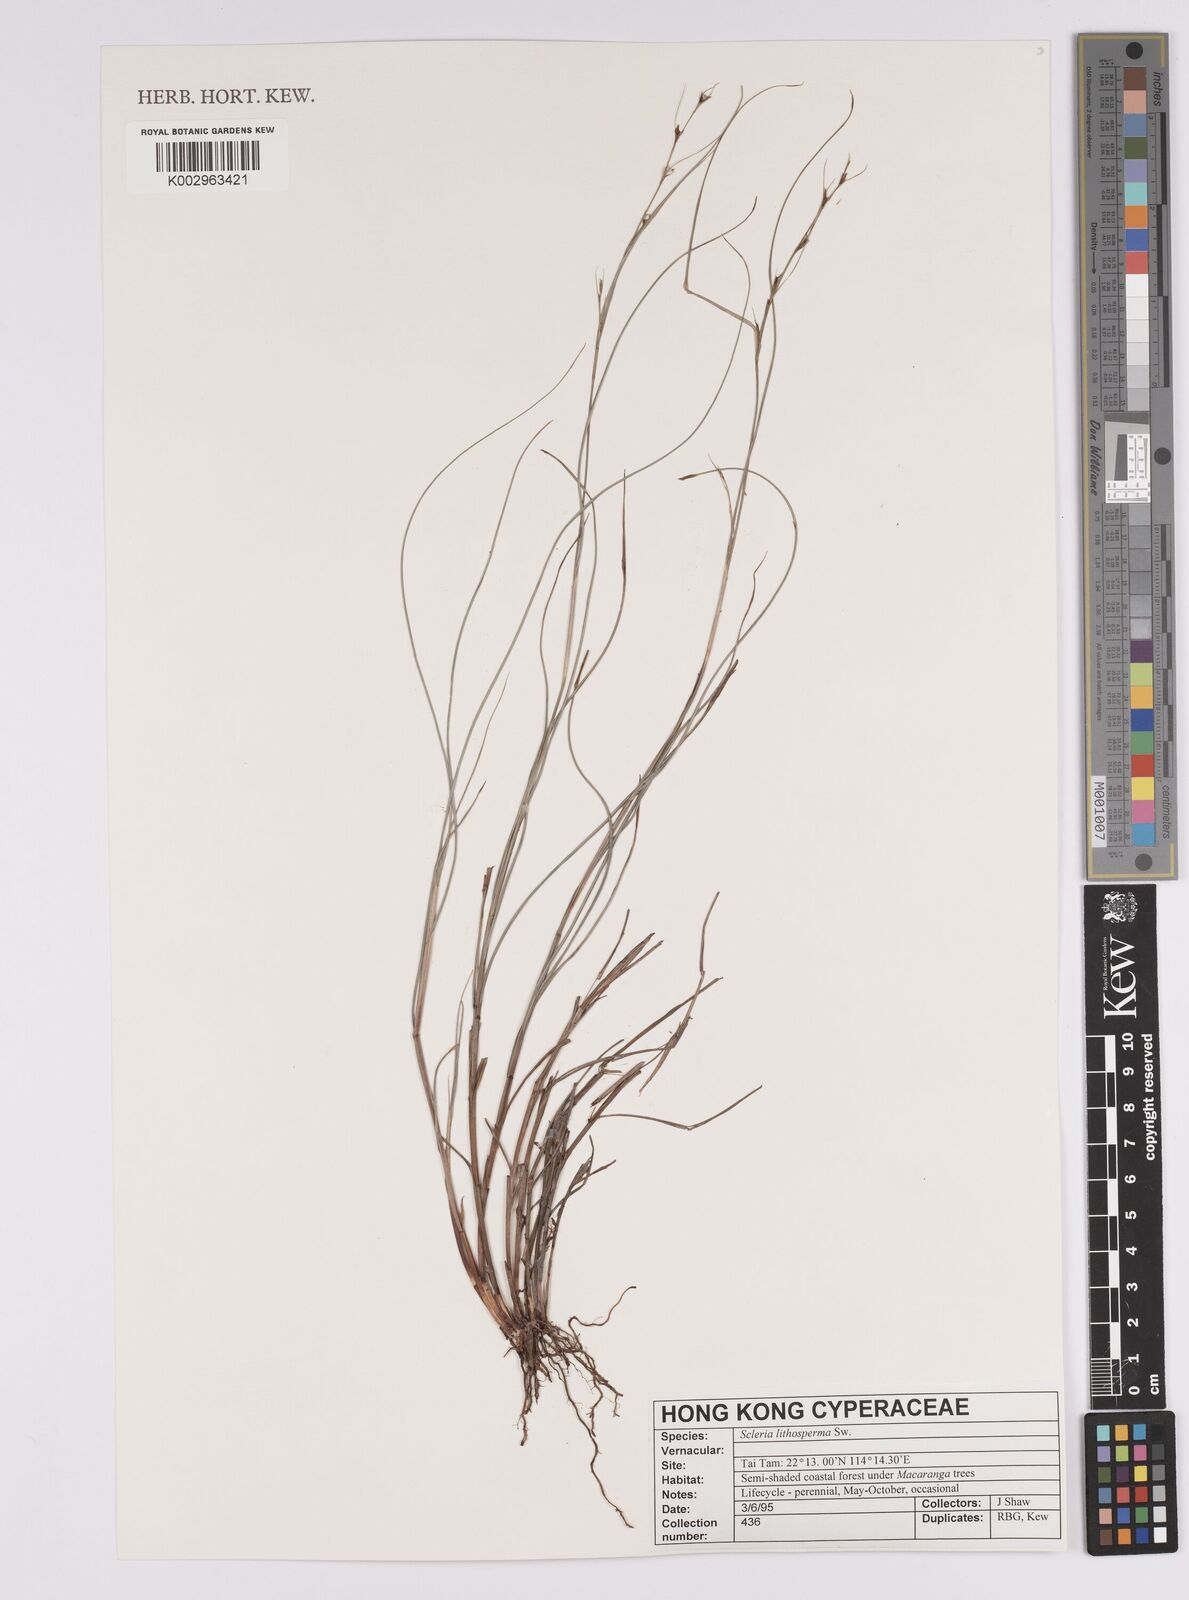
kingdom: Plantae
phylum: Tracheophyta
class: Liliopsida
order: Poales
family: Cyperaceae
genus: Scleria
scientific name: Scleria lithosperma
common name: Florida keys nut-rush
